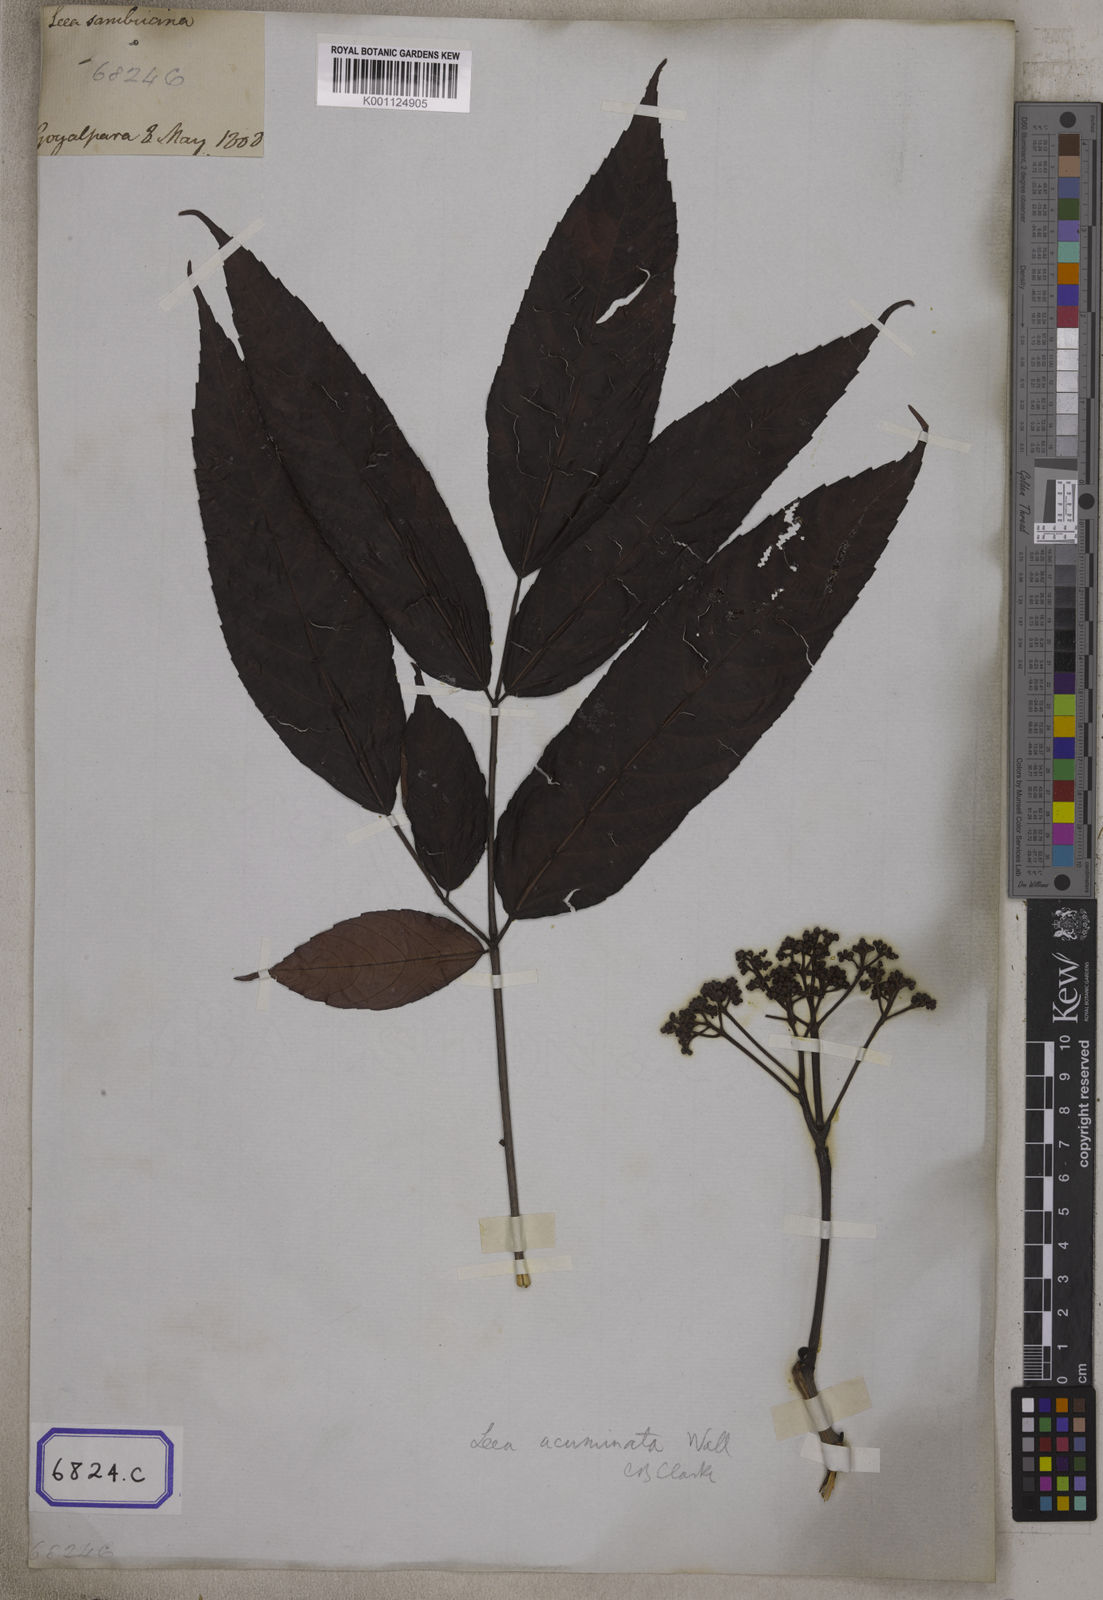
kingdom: Plantae
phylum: Tracheophyta
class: Magnoliopsida
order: Vitales
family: Vitaceae
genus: Leea
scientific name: Leea
